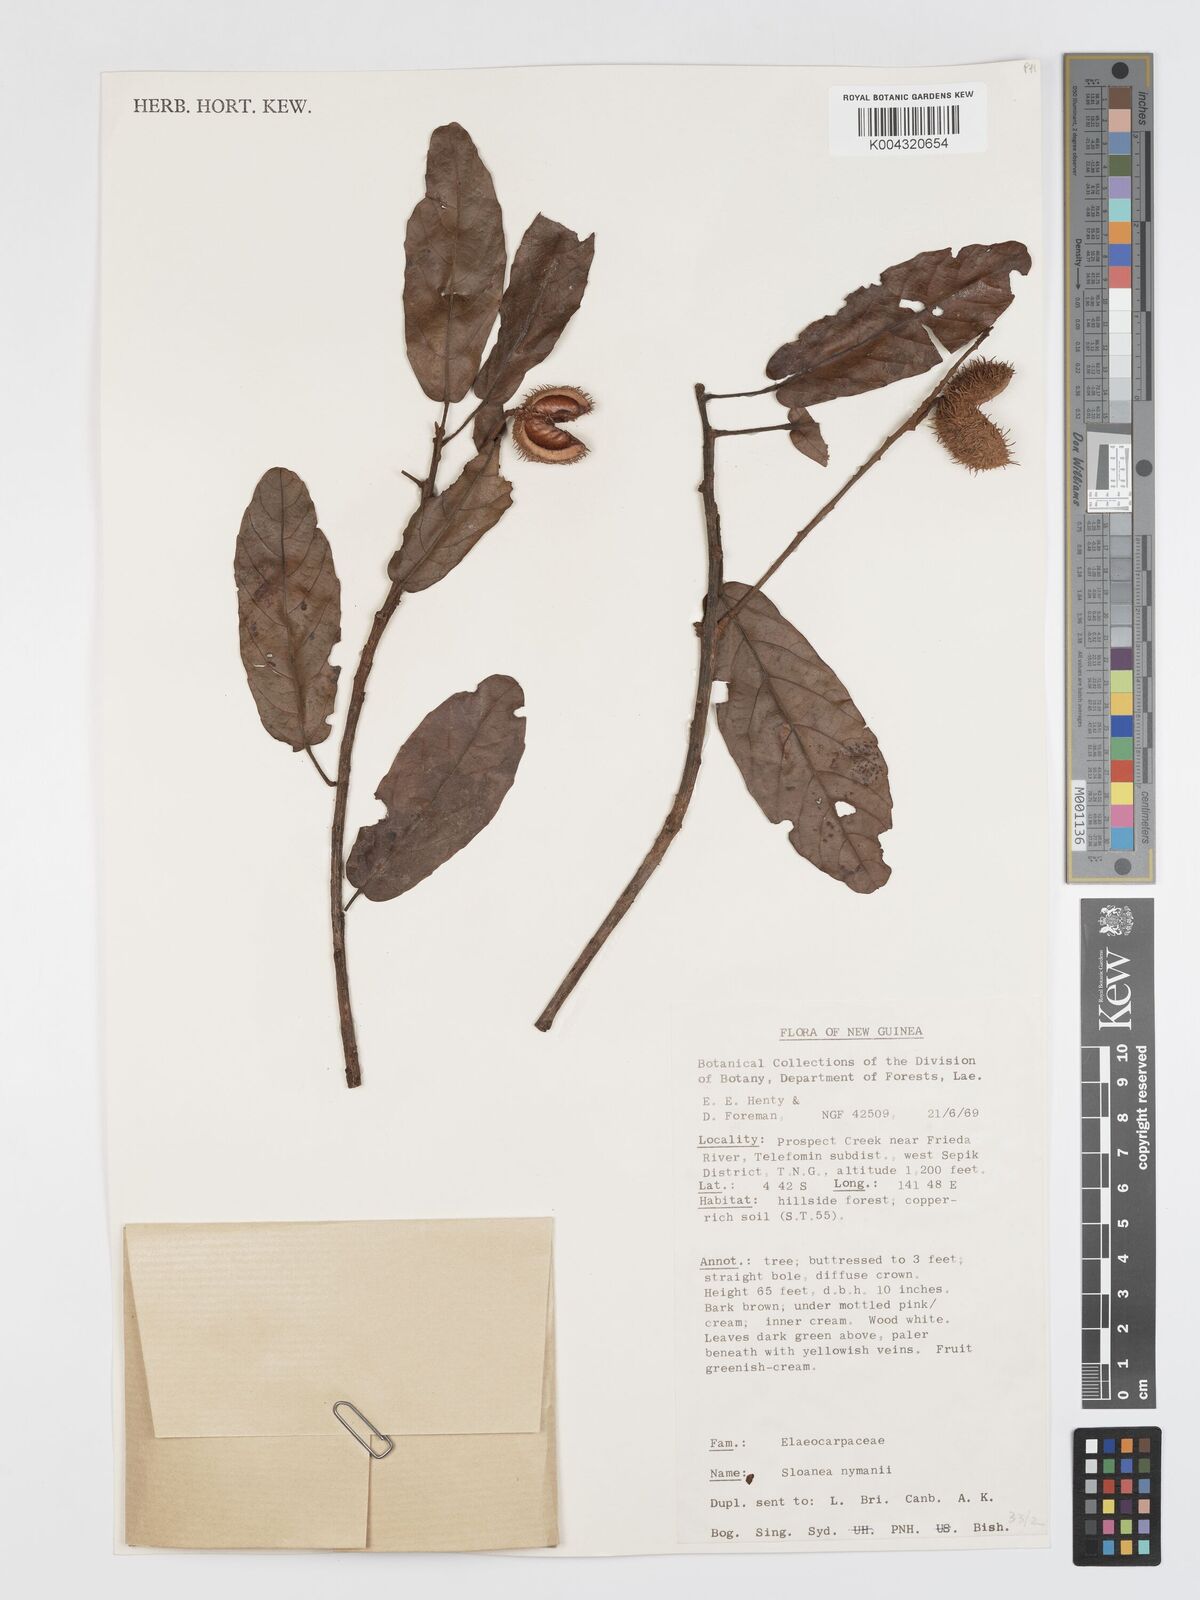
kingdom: Plantae
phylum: Tracheophyta
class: Magnoliopsida
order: Oxalidales
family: Elaeocarpaceae
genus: Sloanea
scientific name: Sloanea nymanii
